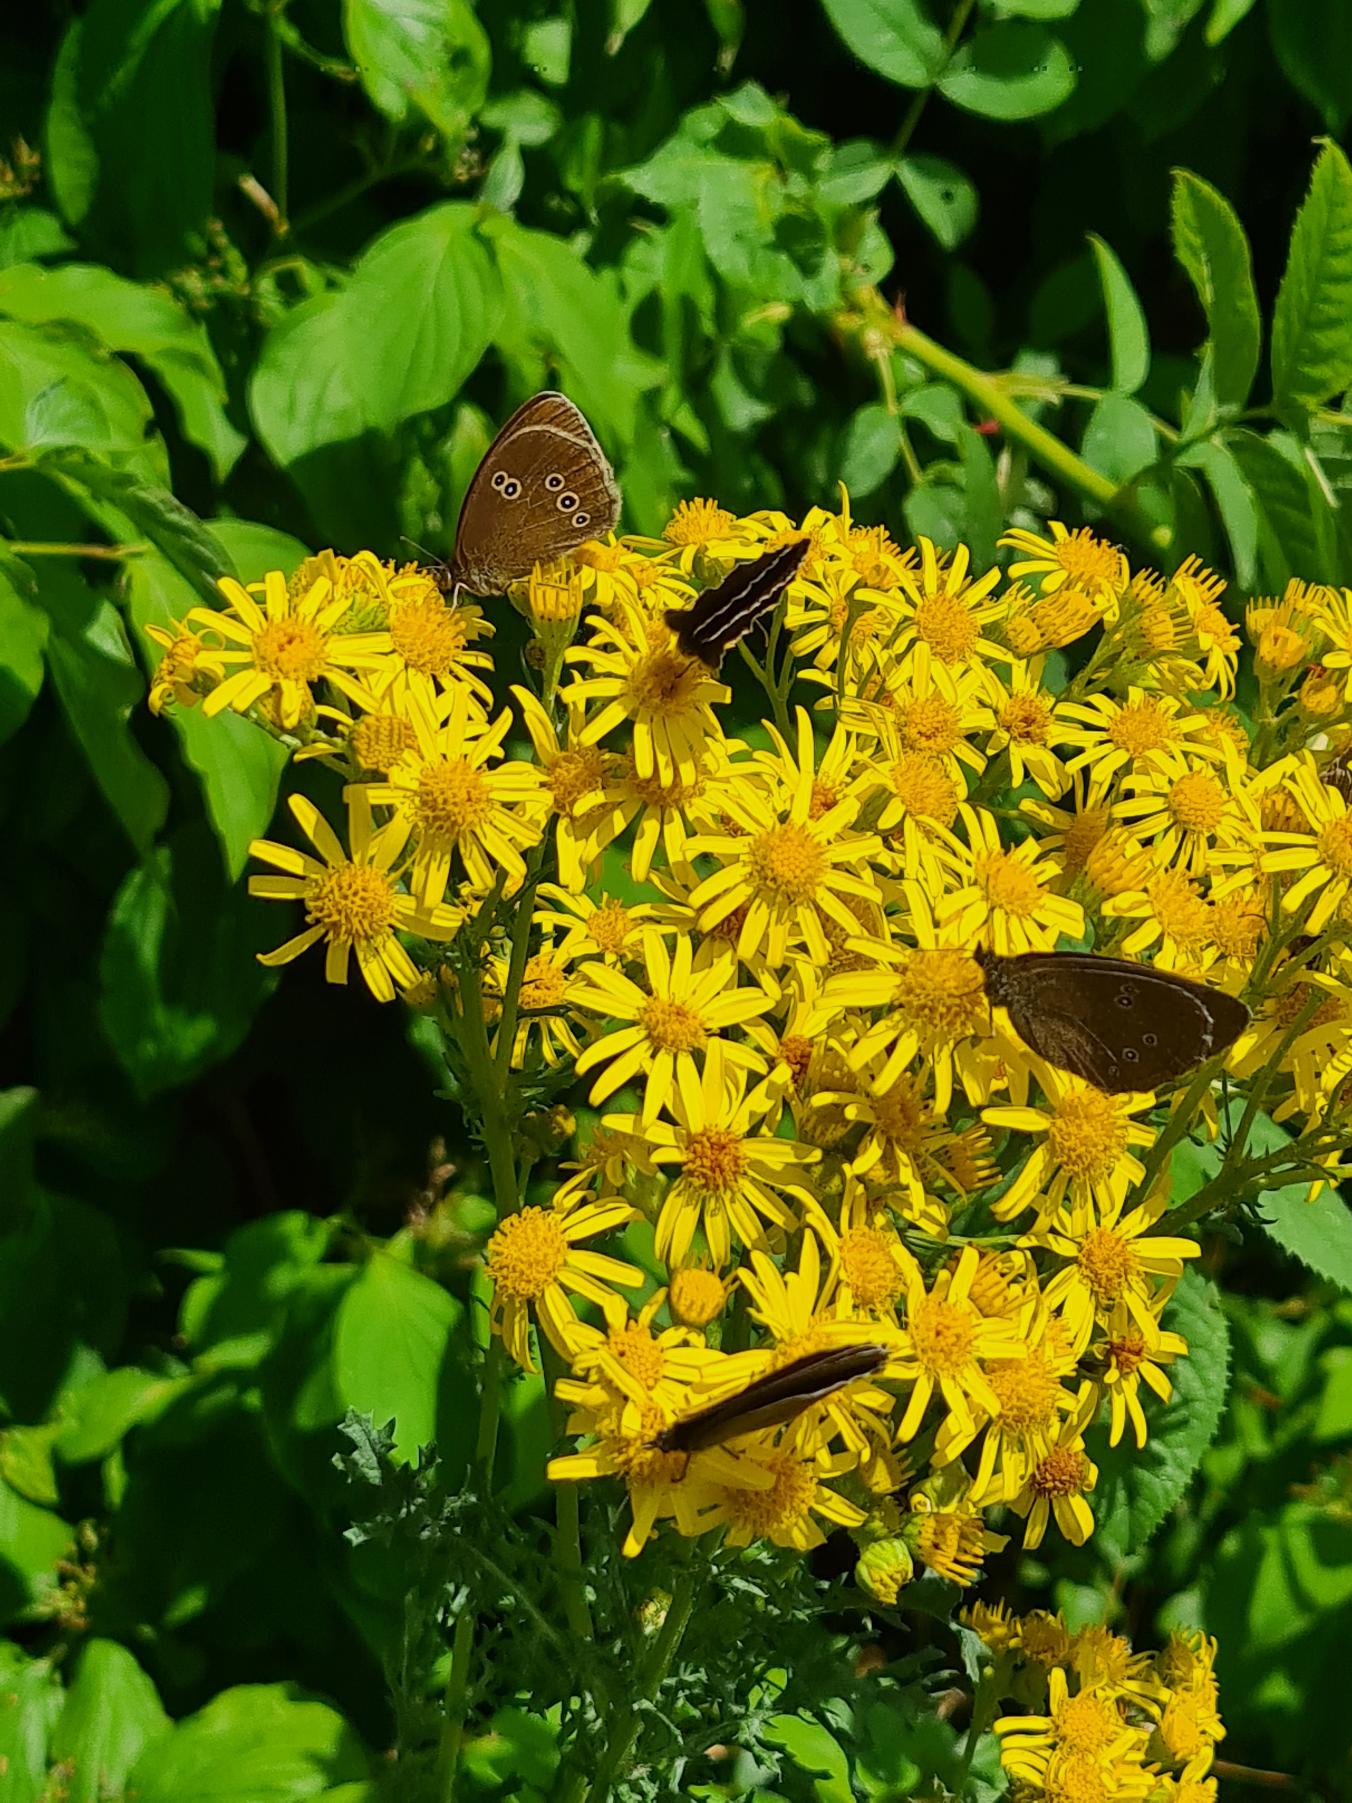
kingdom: Animalia
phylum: Arthropoda
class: Insecta
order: Lepidoptera
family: Nymphalidae
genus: Aphantopus
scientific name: Aphantopus hyperantus
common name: Engrandøje
